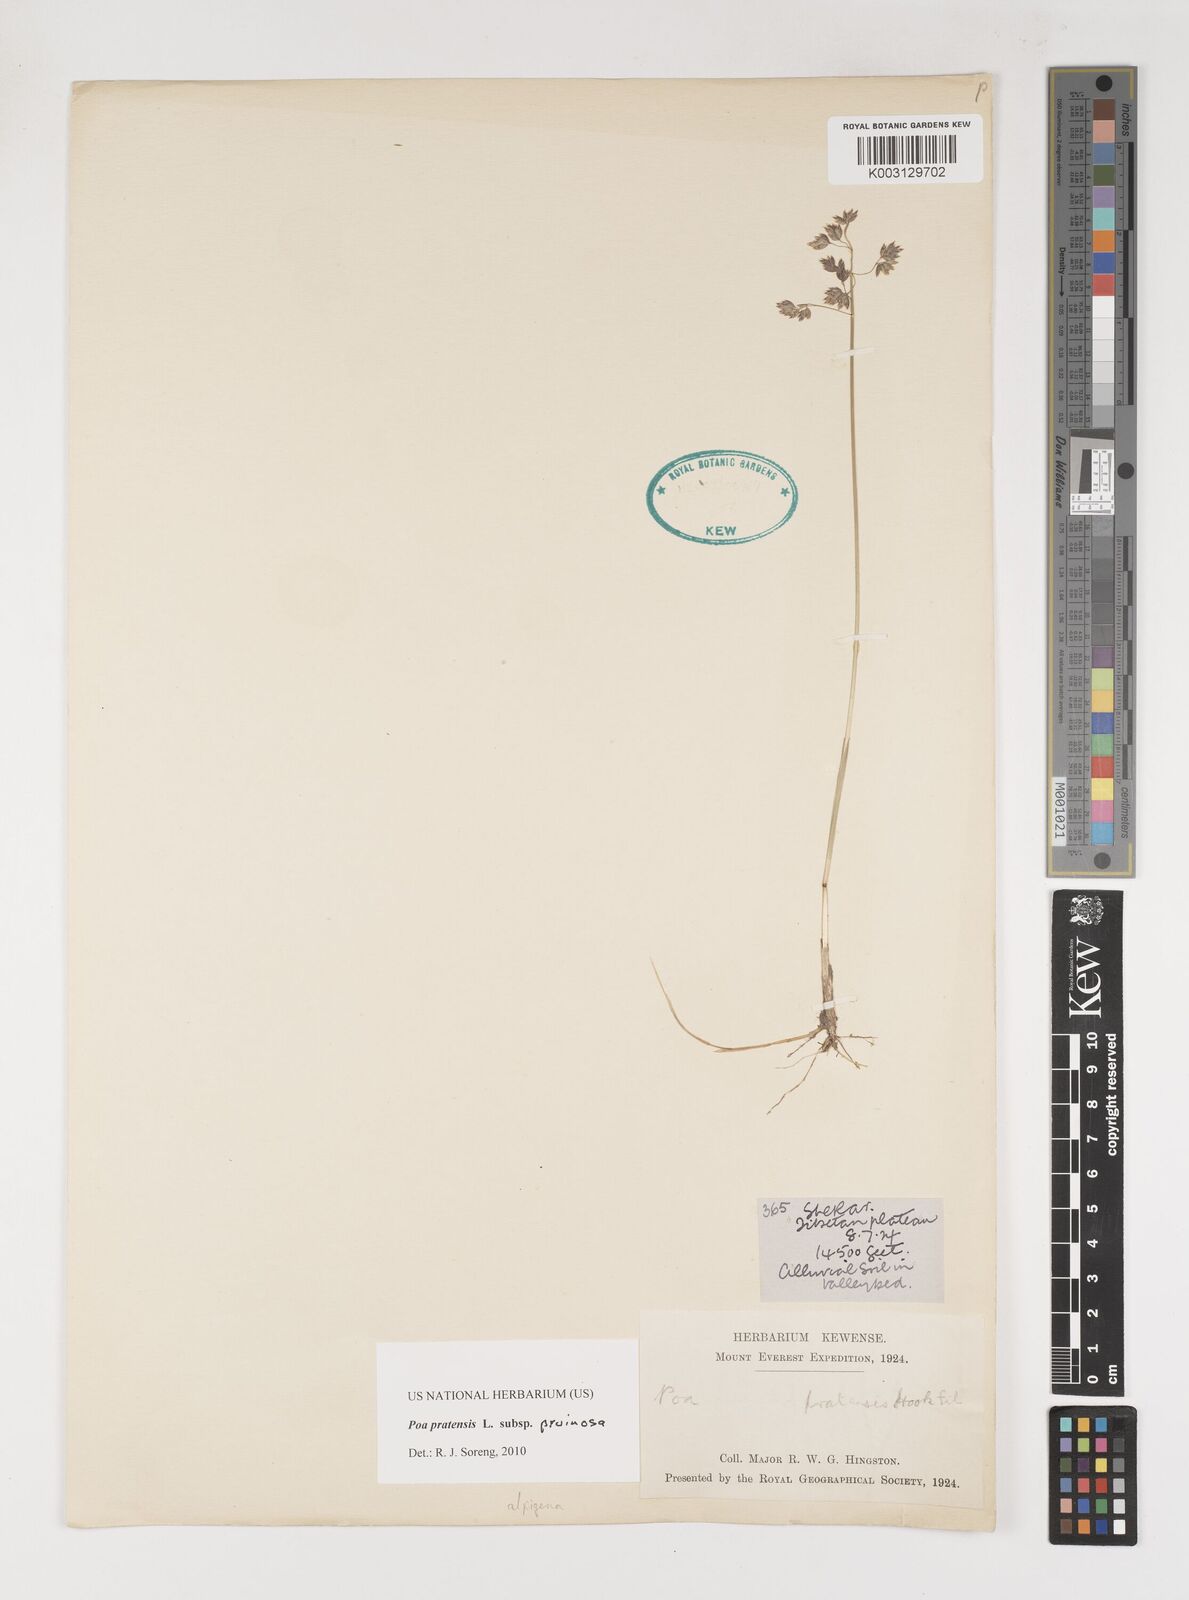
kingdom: Plantae
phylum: Tracheophyta
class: Liliopsida
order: Poales
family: Poaceae
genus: Poa
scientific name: Poa tianschanica
